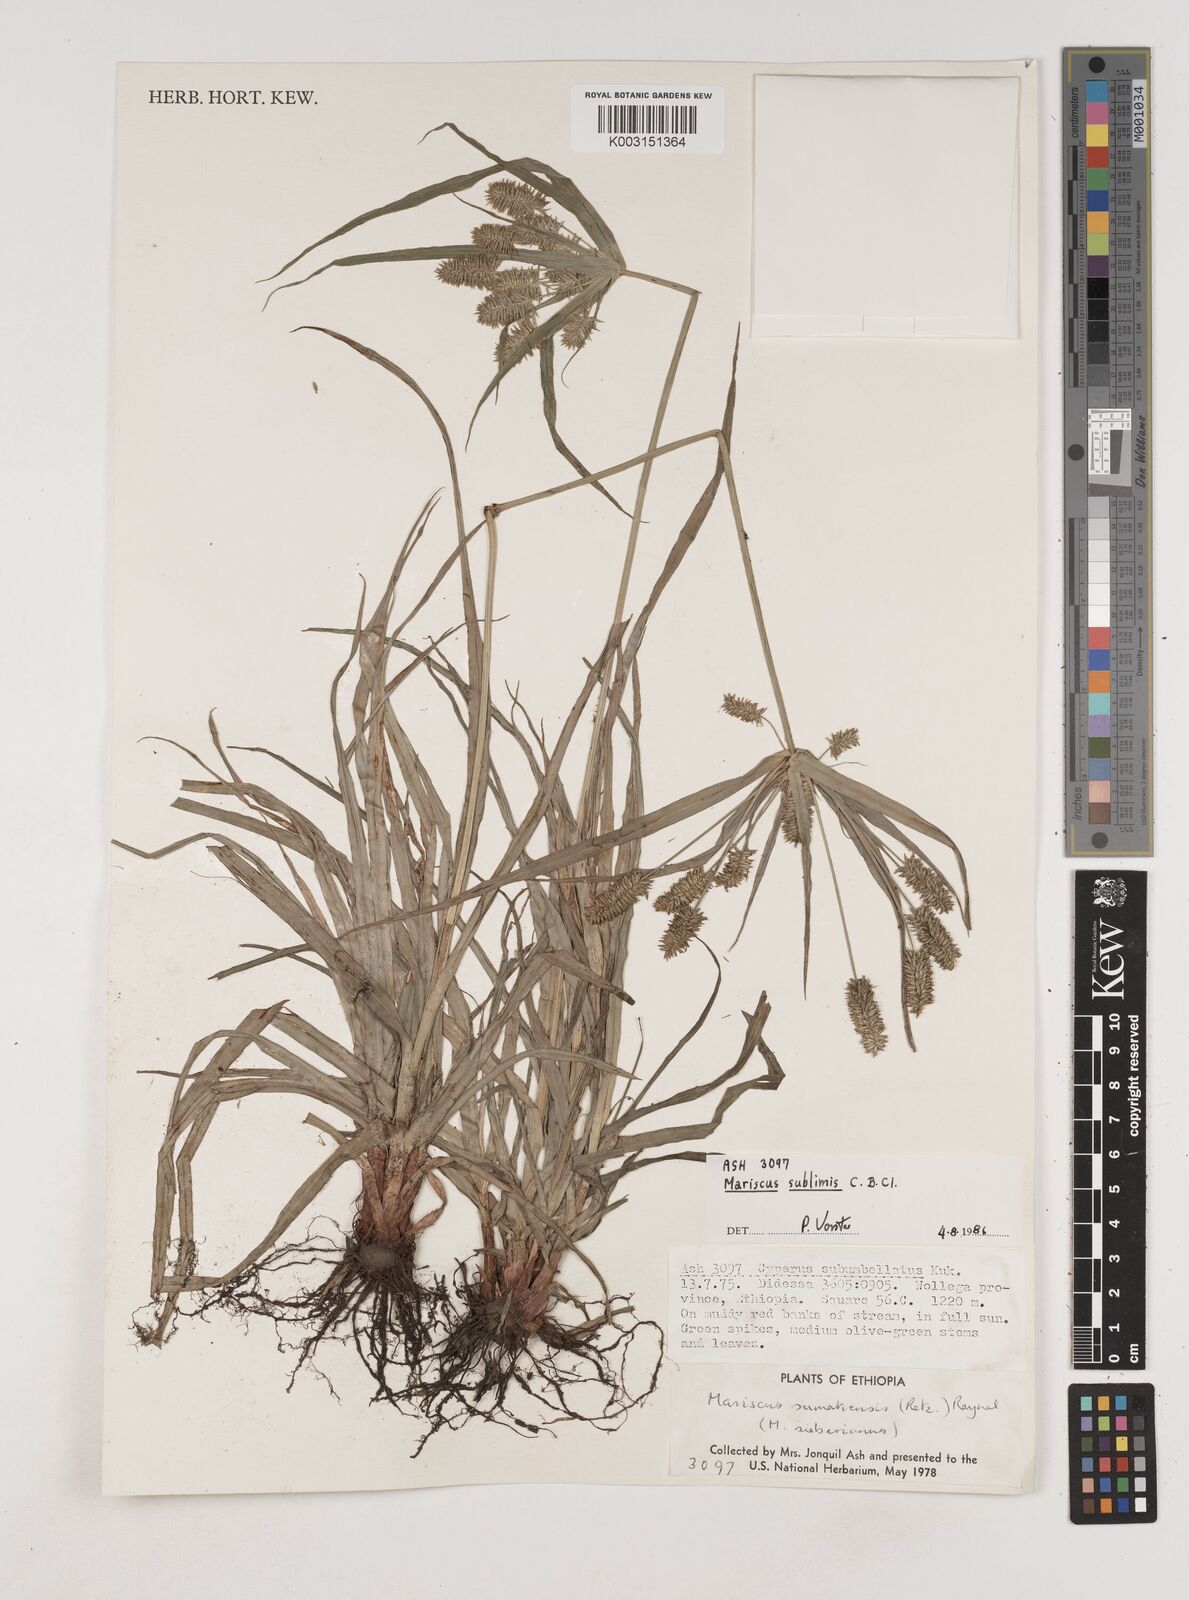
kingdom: Plantae
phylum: Tracheophyta
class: Liliopsida
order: Poales
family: Cyperaceae
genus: Cyperus
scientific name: Cyperus cyperoides
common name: Pacific island flat sedge
